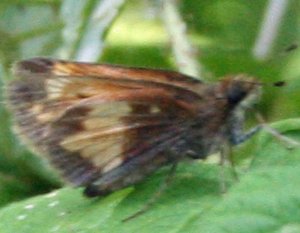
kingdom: Animalia
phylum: Arthropoda
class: Insecta
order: Lepidoptera
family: Hesperiidae
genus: Lon
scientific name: Lon hobomok
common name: Hobomok Skipper
